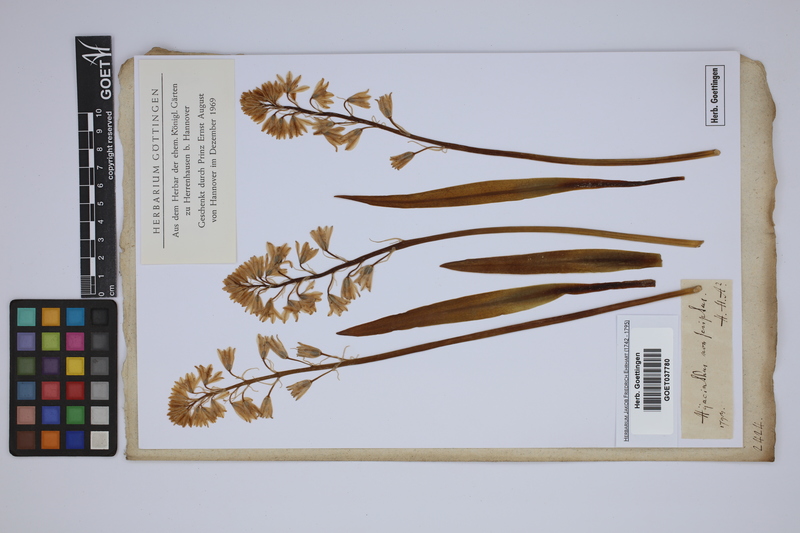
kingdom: Plantae
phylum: Tracheophyta
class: Liliopsida
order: Asparagales
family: Asparagaceae
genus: Hyacinthoides
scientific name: Hyacinthoides non-scripta
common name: Bluebell
